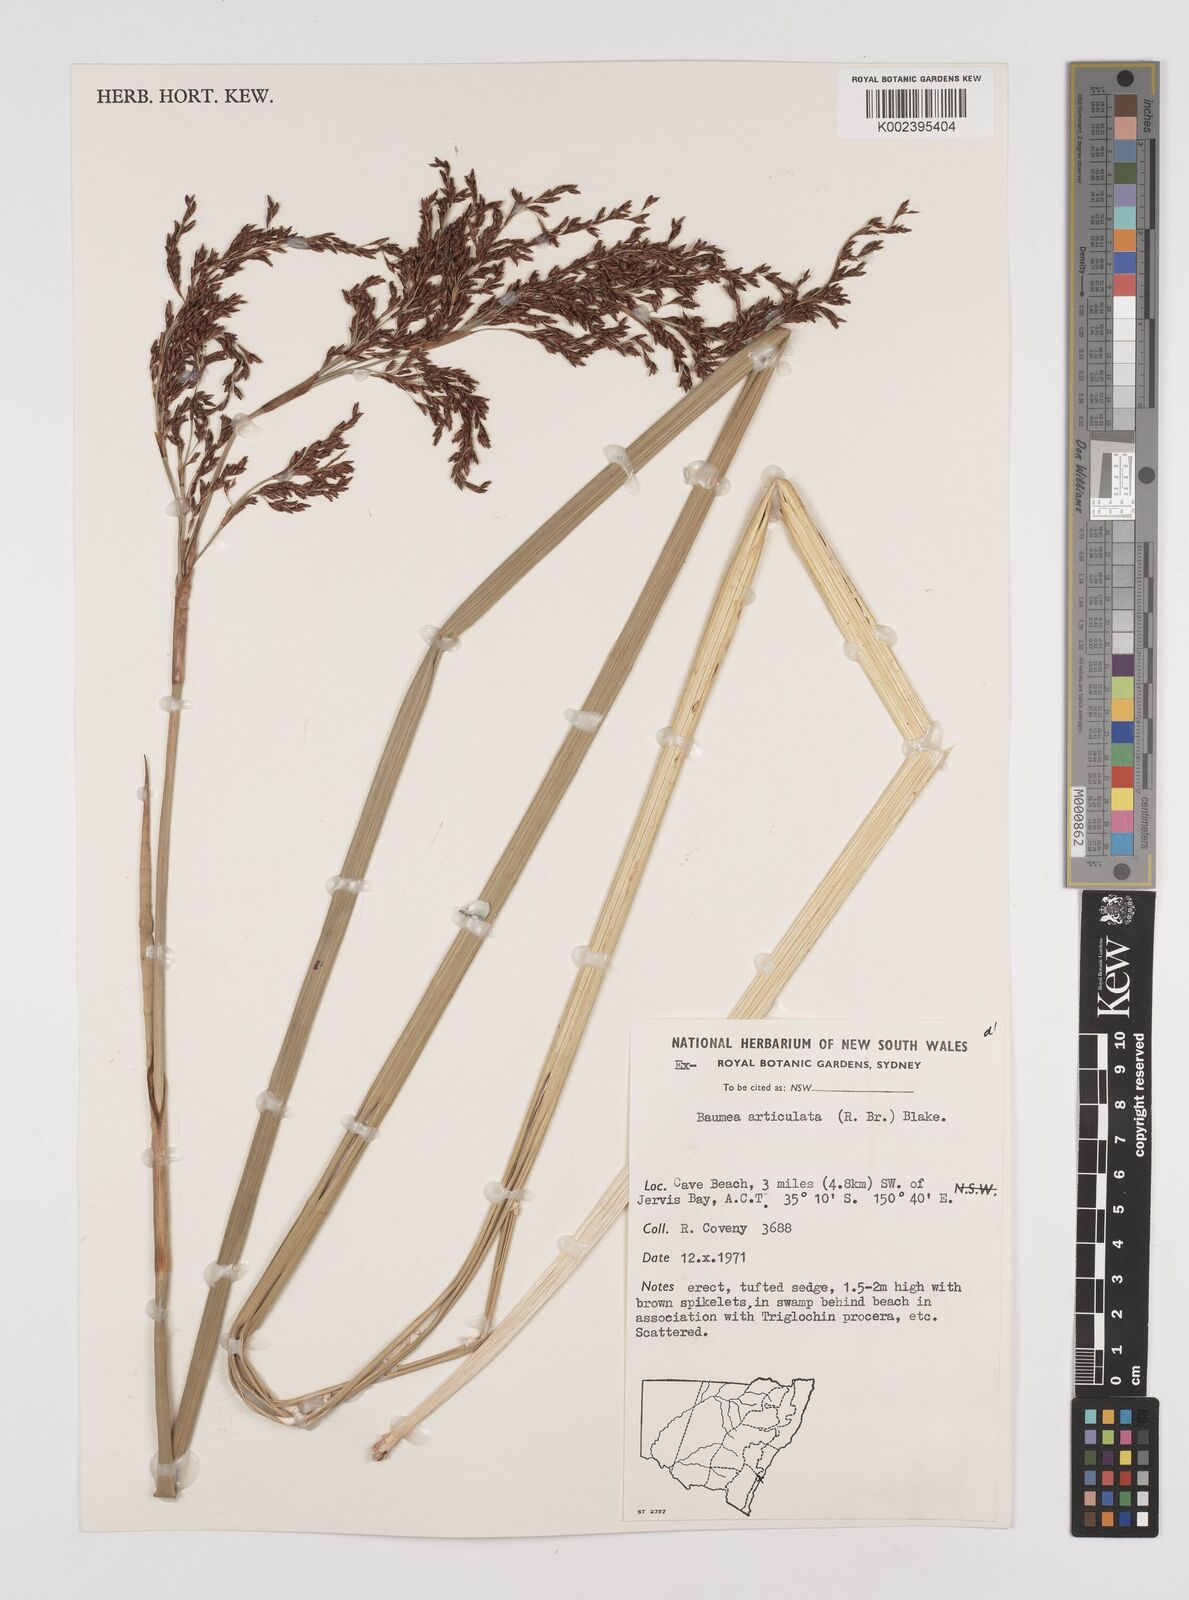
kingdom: Plantae
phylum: Tracheophyta
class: Liliopsida
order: Poales
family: Cyperaceae
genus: Machaerina
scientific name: Machaerina articulata
